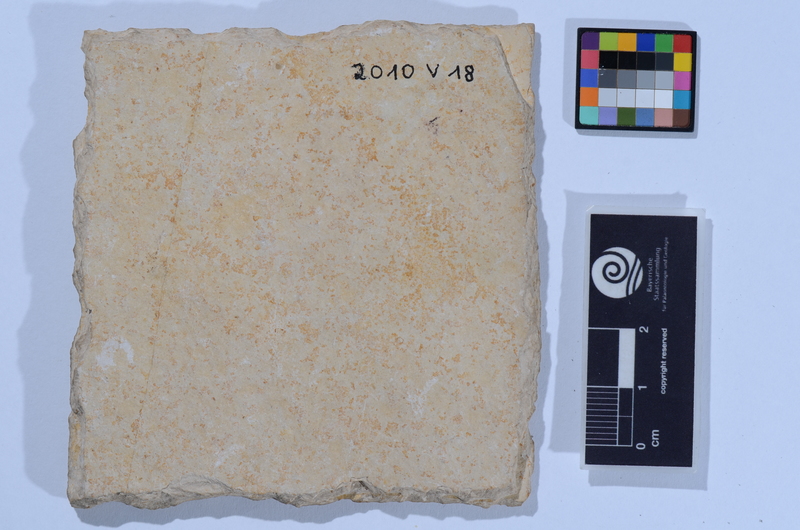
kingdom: Animalia
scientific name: Animalia
